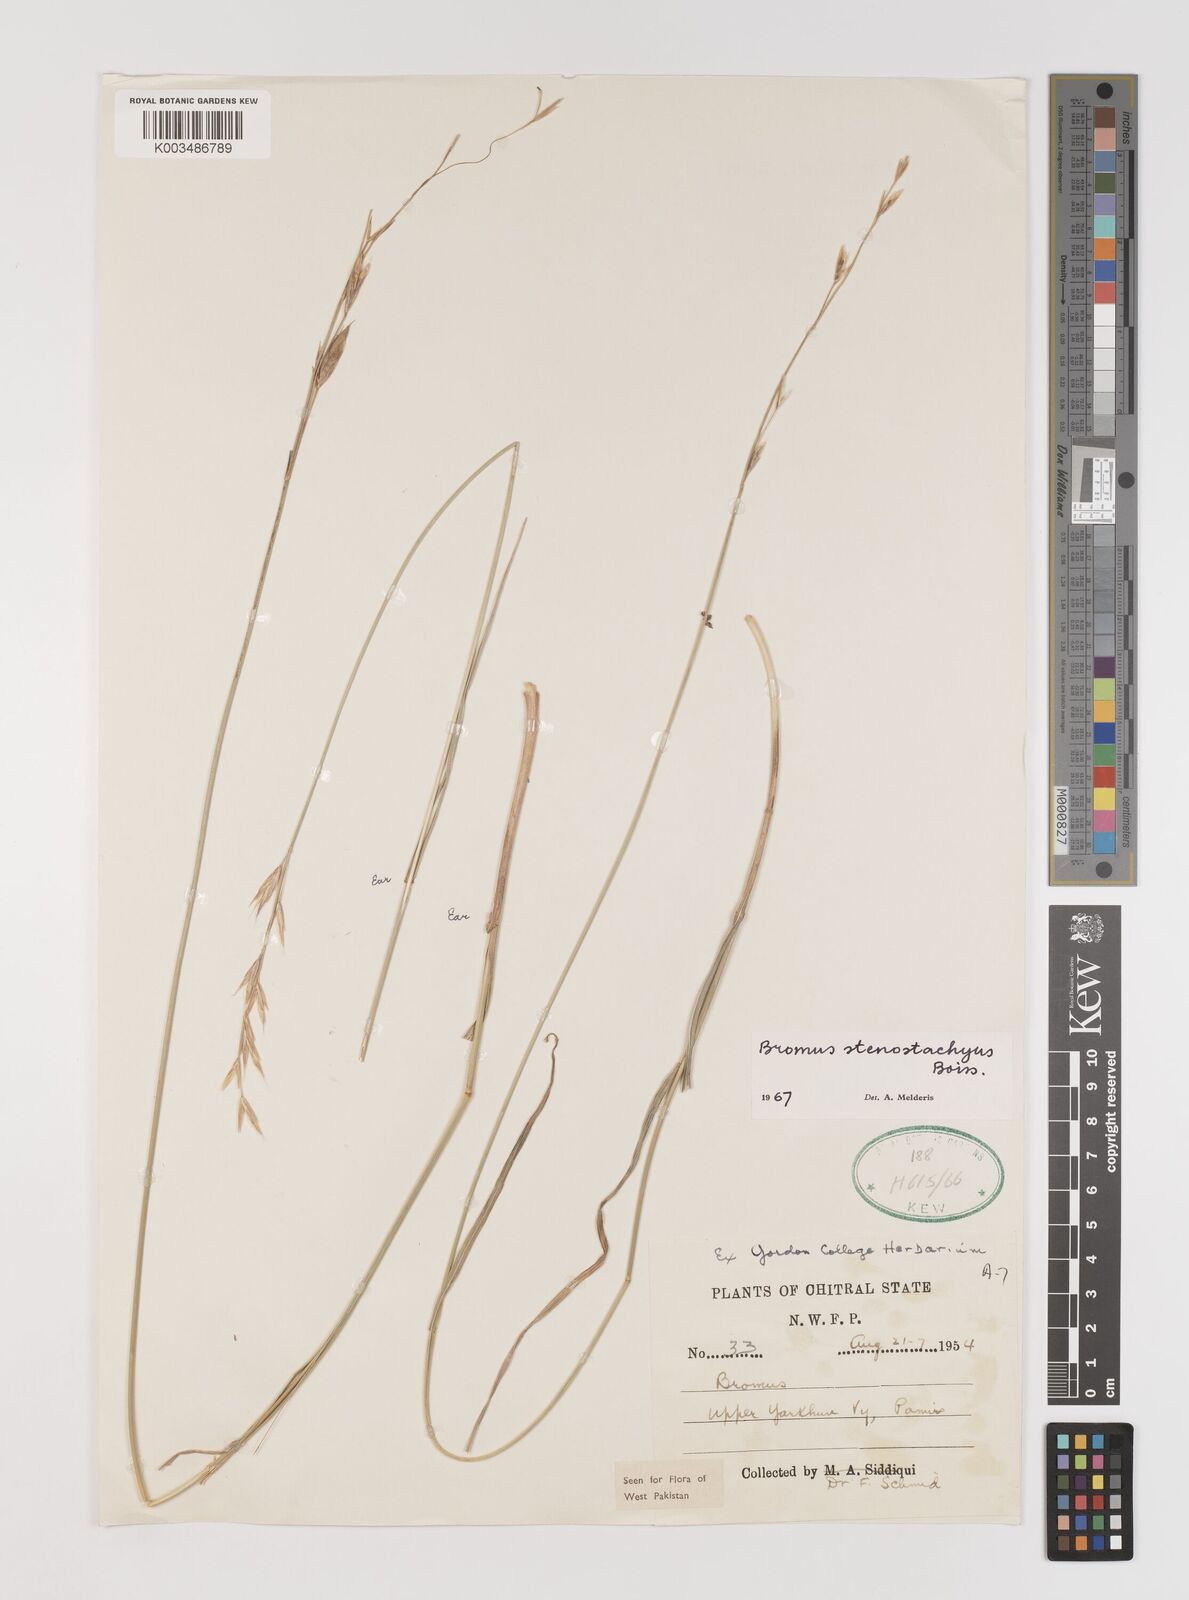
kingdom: Plantae
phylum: Tracheophyta
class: Liliopsida
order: Poales
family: Poaceae
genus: Bromus
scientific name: Bromus stenostachyus
